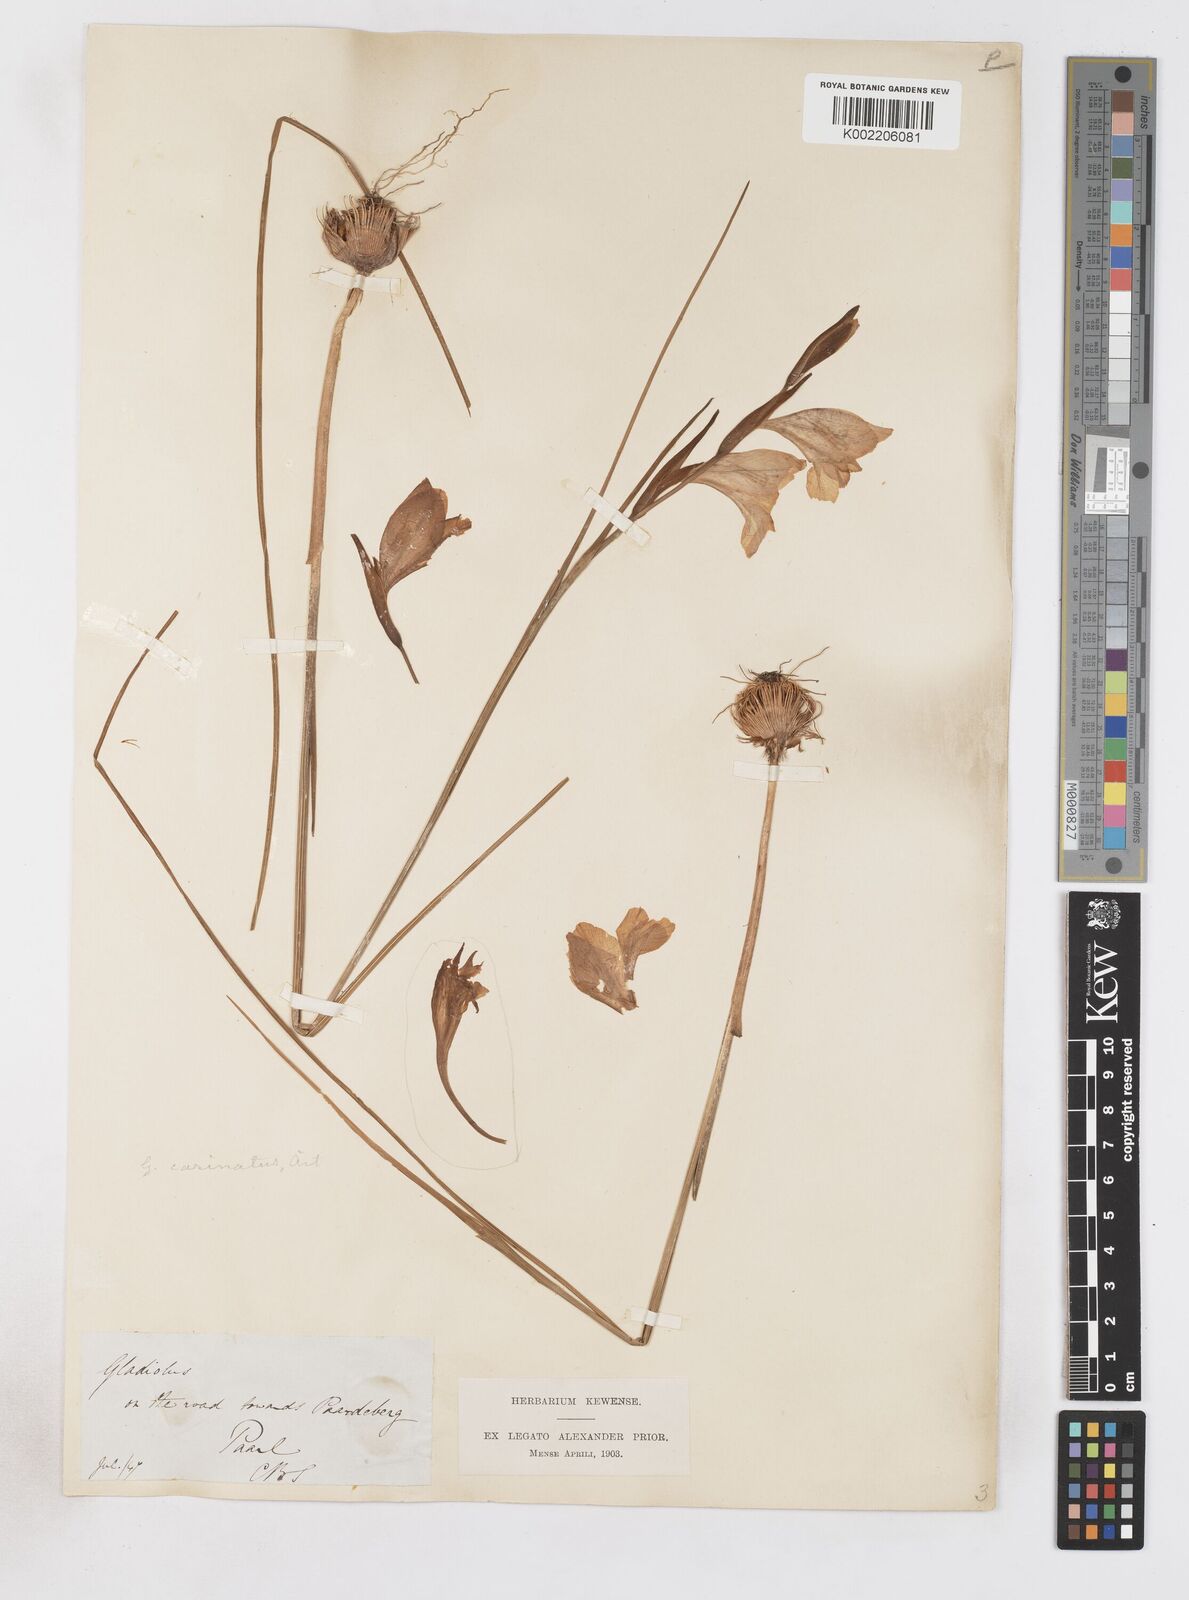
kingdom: Plantae
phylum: Tracheophyta
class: Liliopsida
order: Asparagales
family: Iridaceae
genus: Gladiolus
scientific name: Gladiolus carinatus
